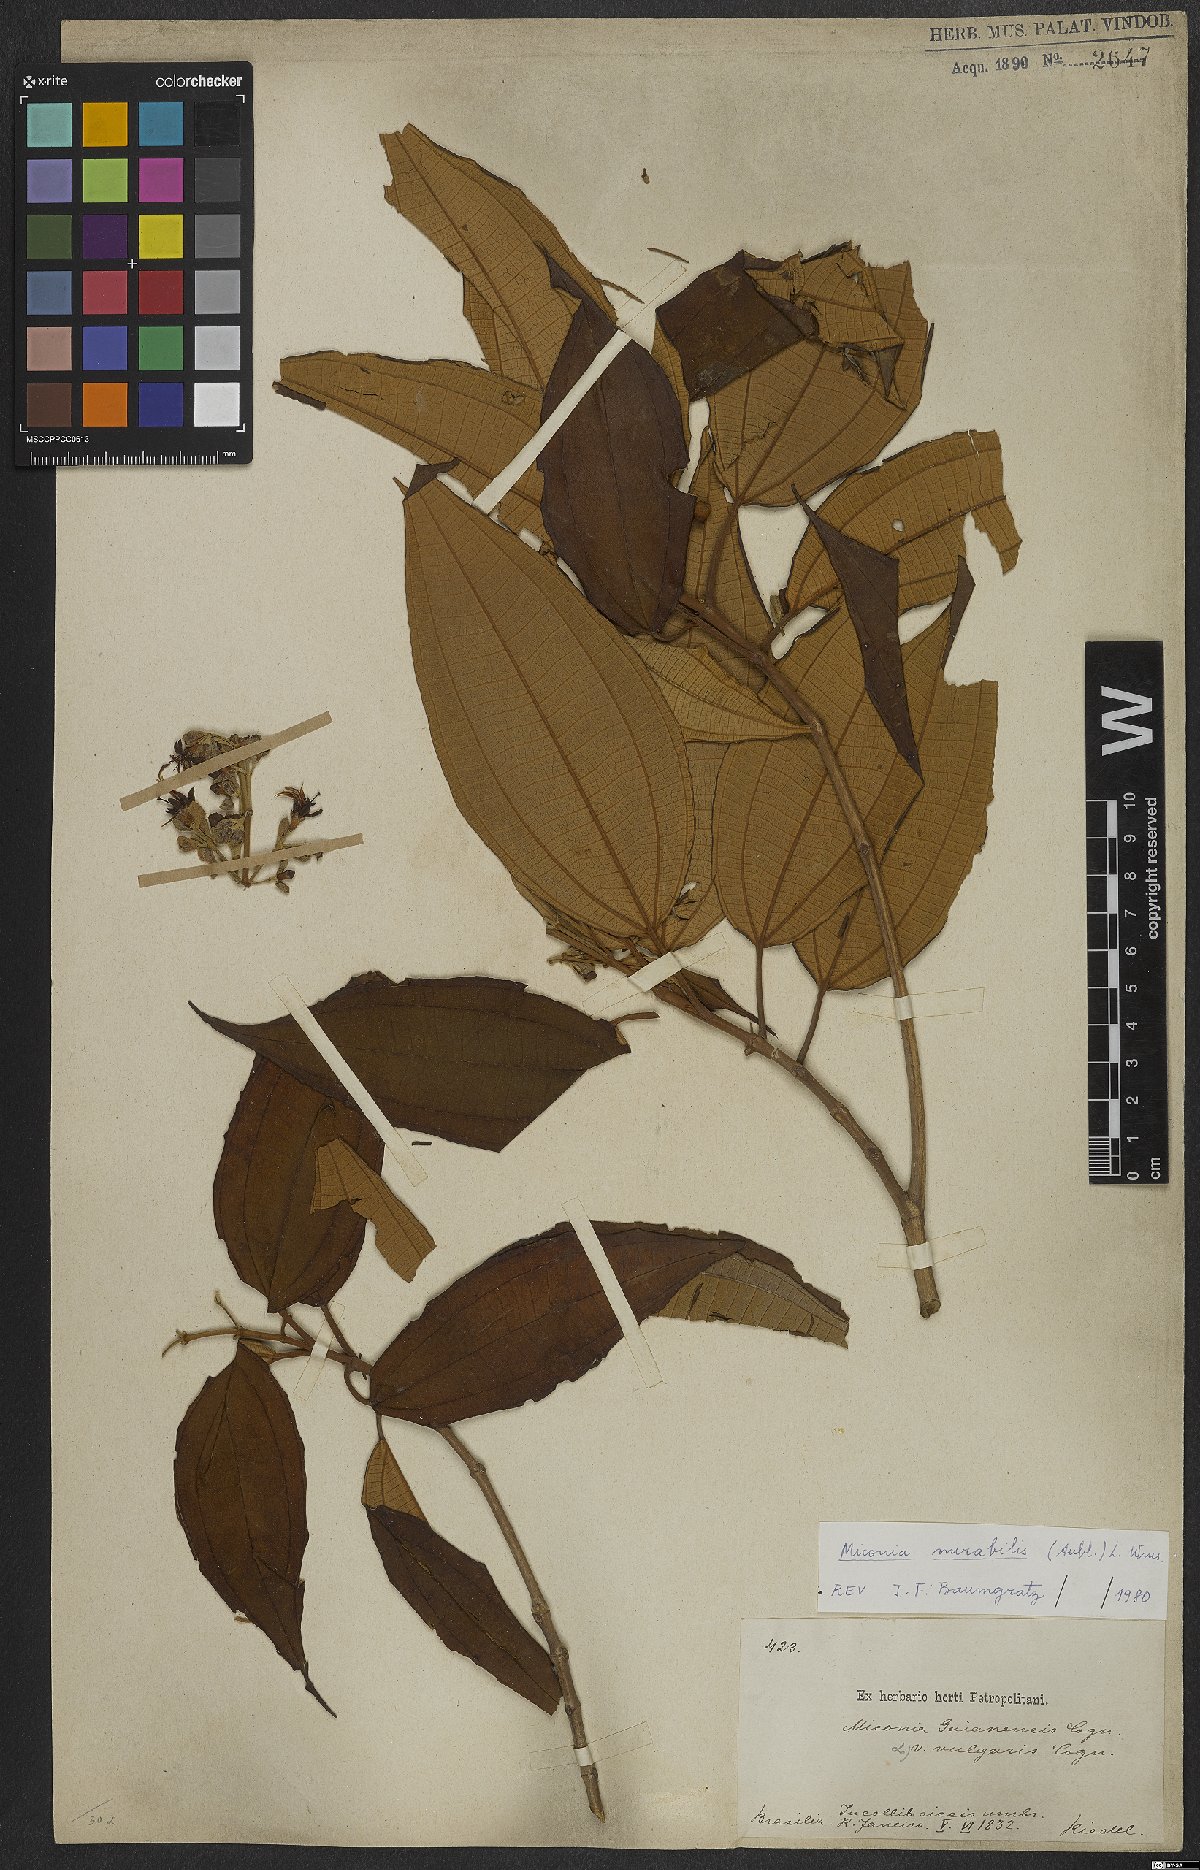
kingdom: Plantae
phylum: Tracheophyta
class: Magnoliopsida
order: Myrtales
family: Melastomataceae
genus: Miconia
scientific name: Miconia mirabilis
